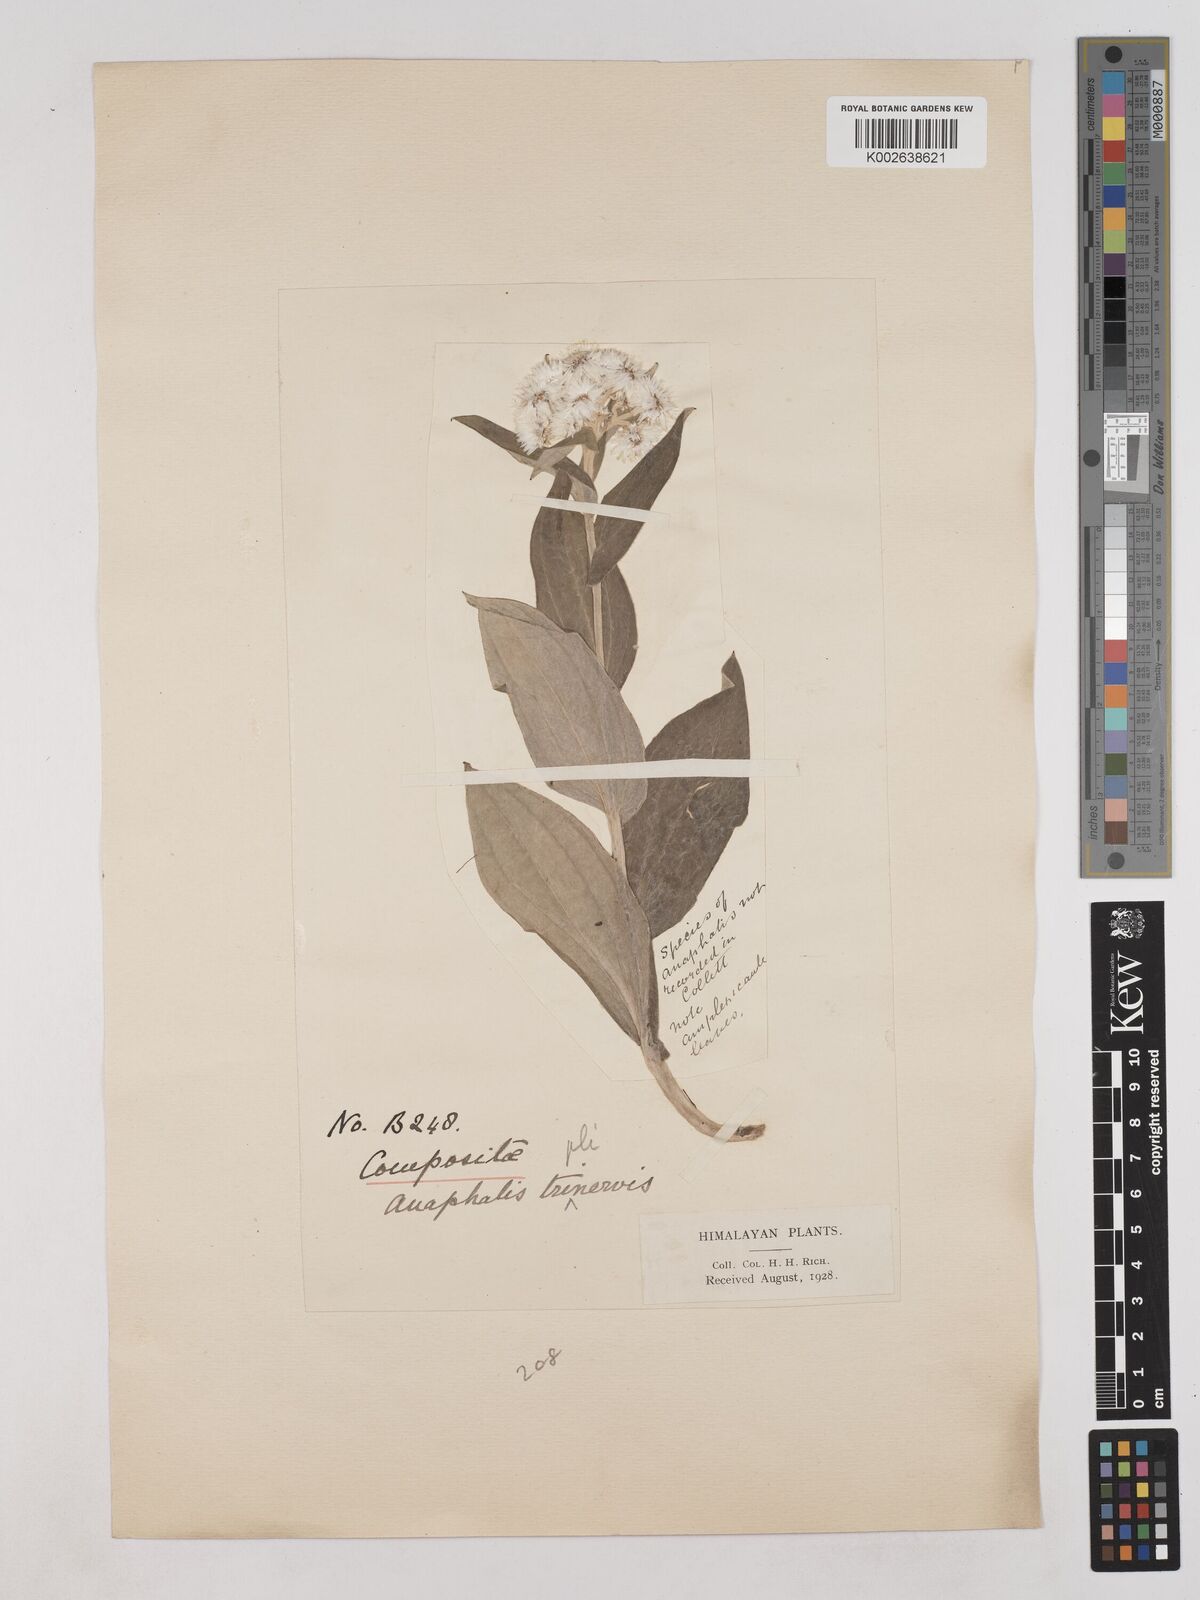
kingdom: Plantae
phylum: Tracheophyta
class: Magnoliopsida
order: Asterales
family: Asteraceae
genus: Anaphalis
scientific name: Anaphalis triplinervis
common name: Pearly everlasting
